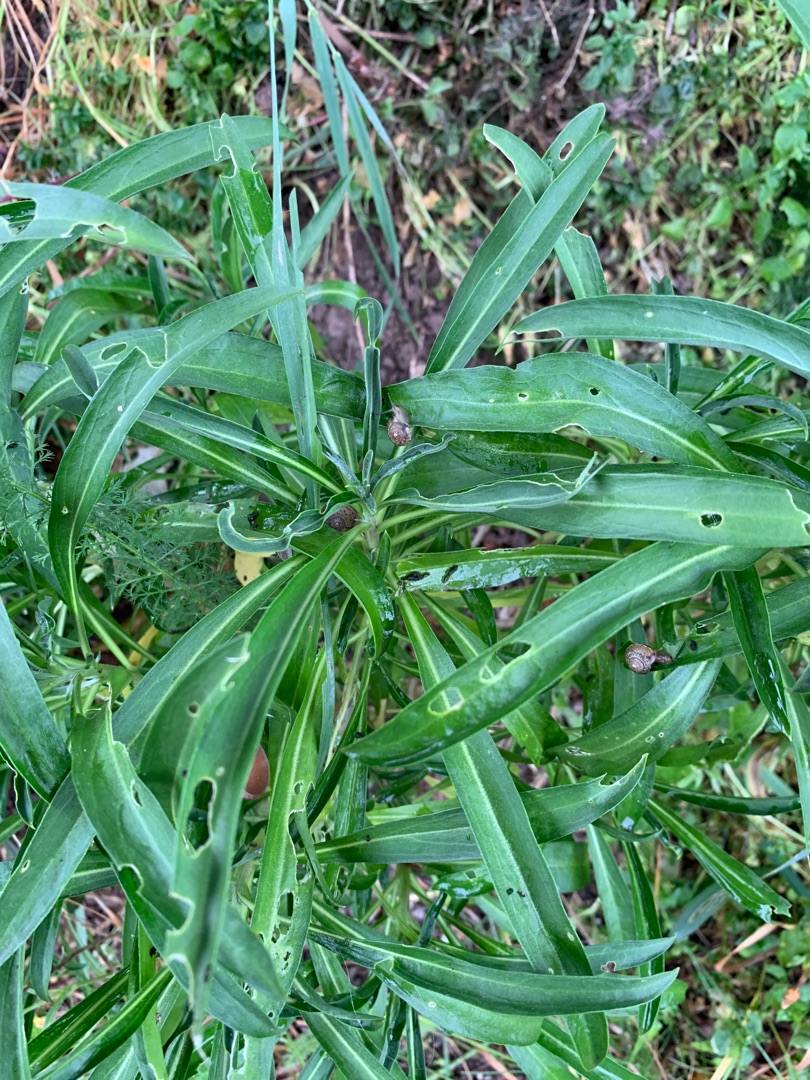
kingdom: Plantae
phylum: Tracheophyta
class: Magnoliopsida
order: Brassicales
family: Brassicaceae
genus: Erysimum
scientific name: Erysimum cheiri
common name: Gyldenlak
